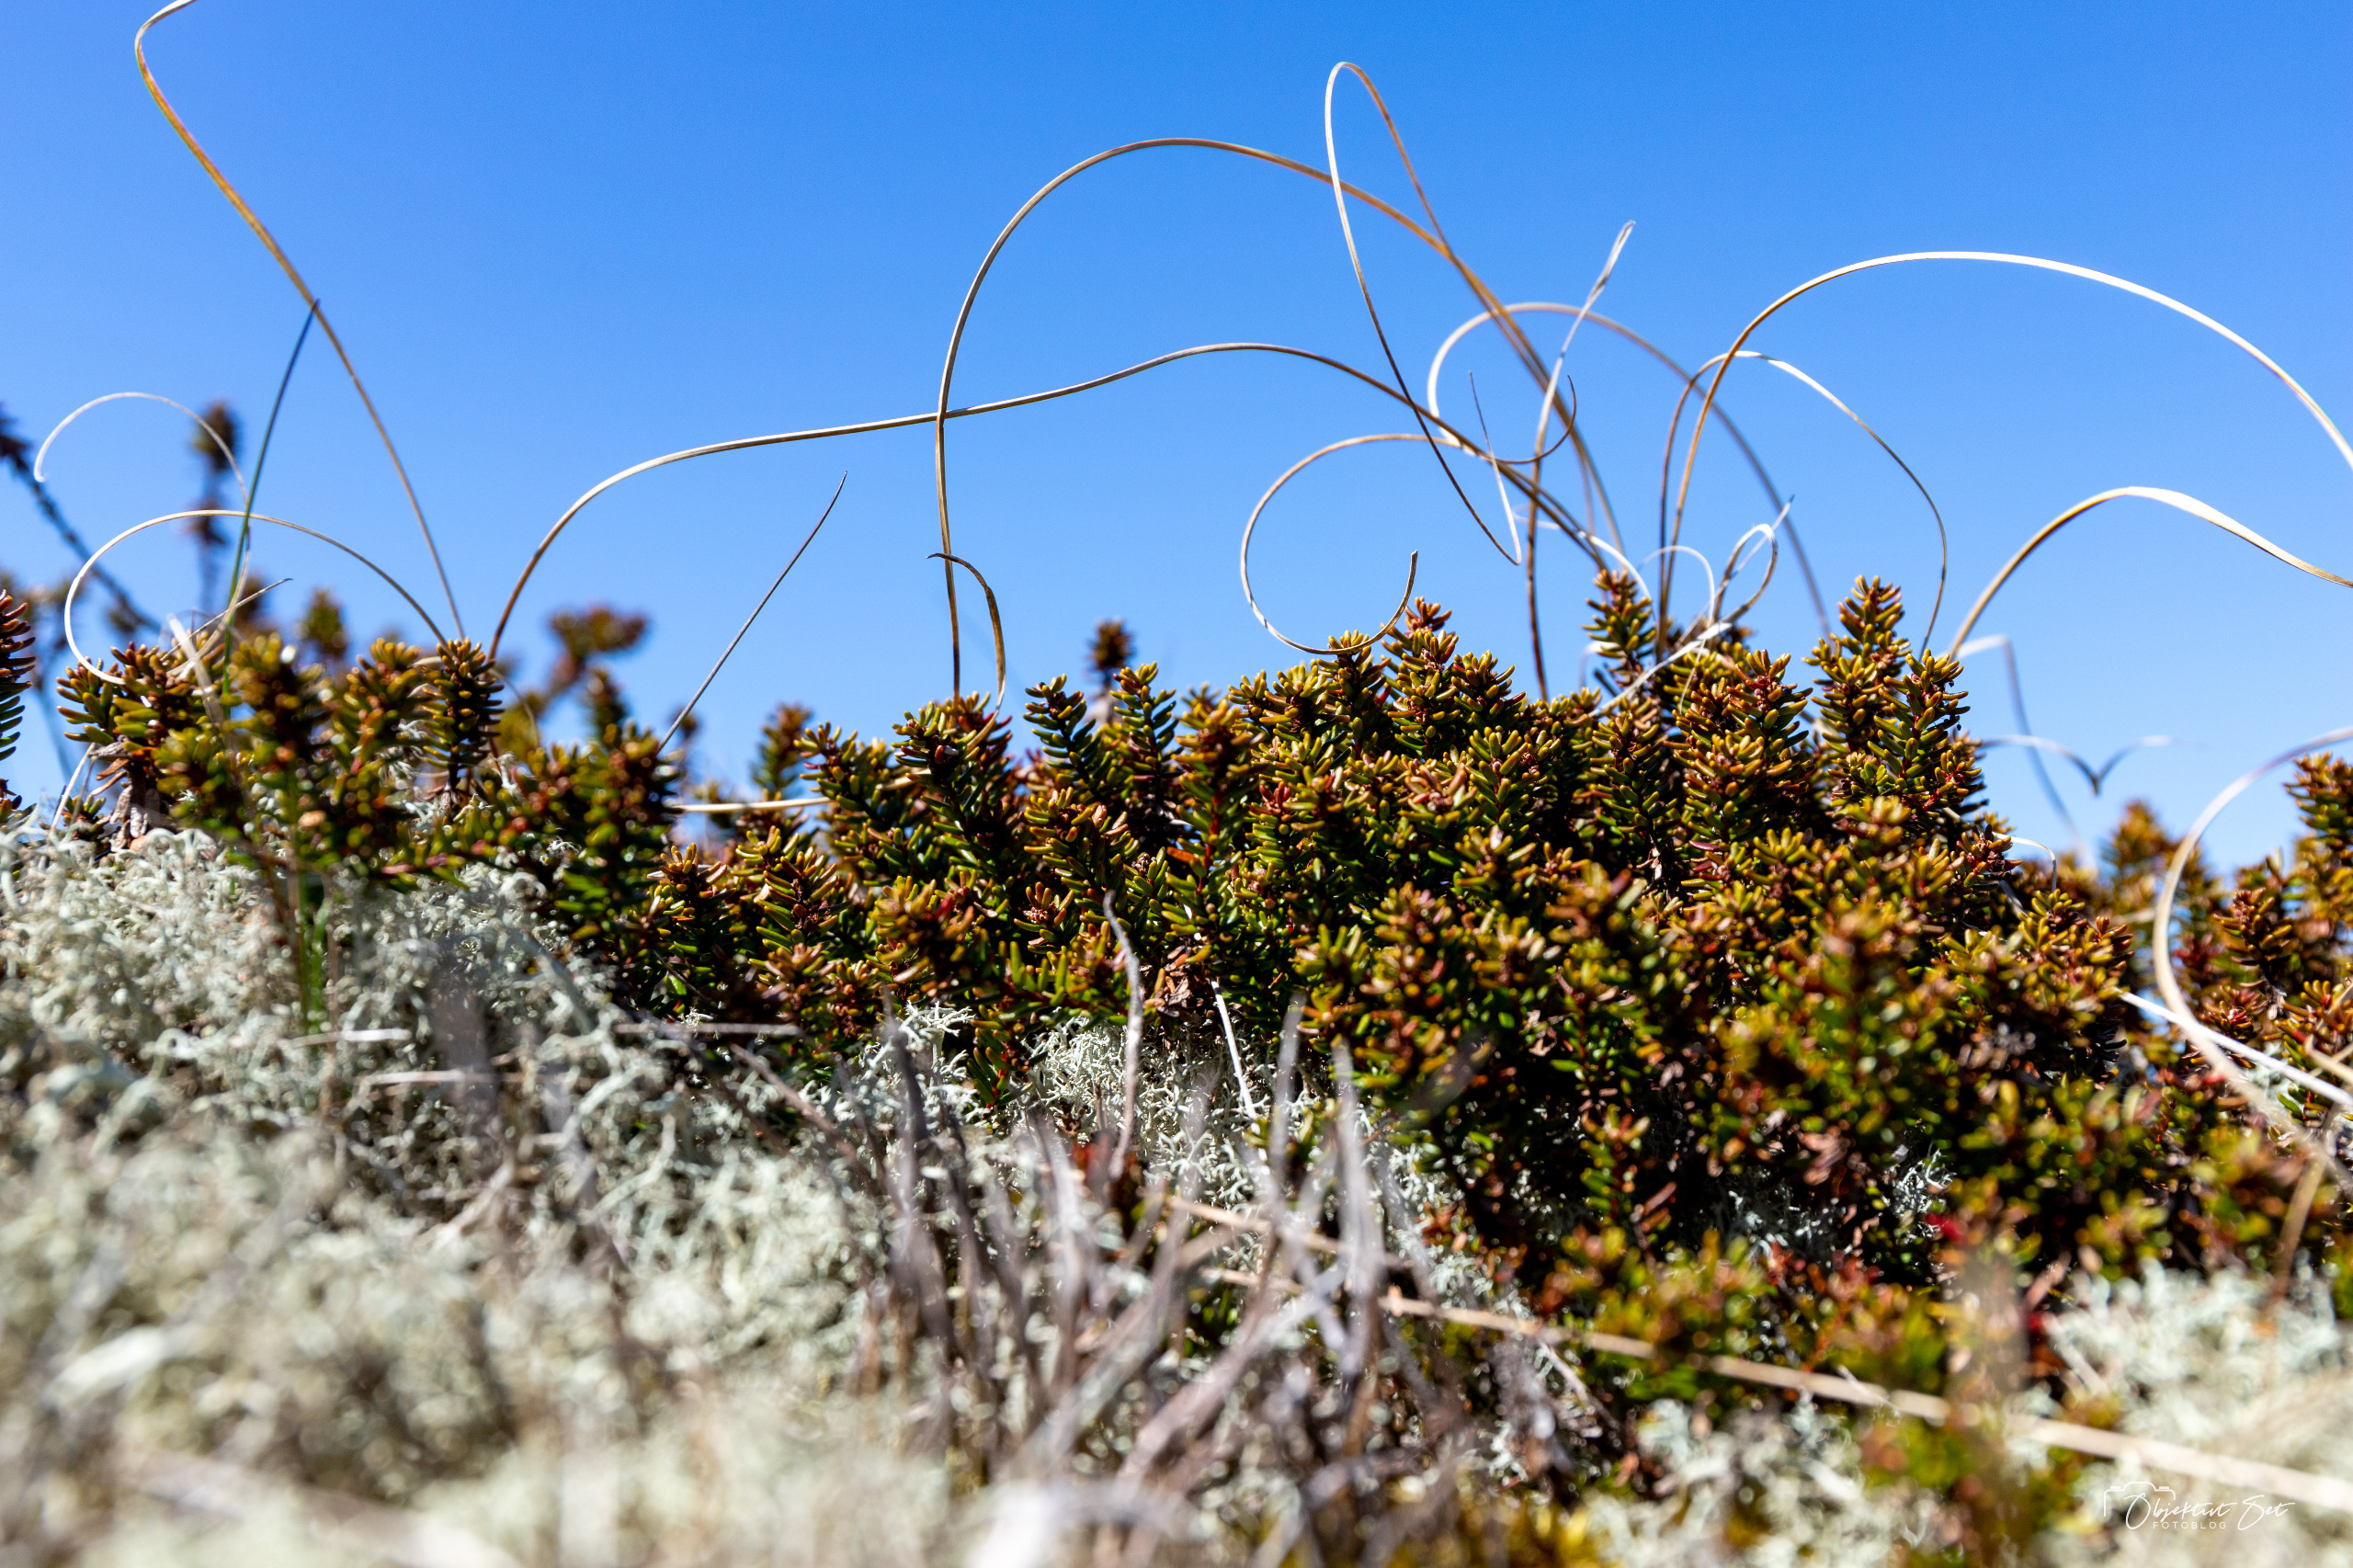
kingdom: Plantae
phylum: Tracheophyta
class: Magnoliopsida
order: Ericales
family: Ericaceae
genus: Empetrum
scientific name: Empetrum nigrum
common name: Revling
